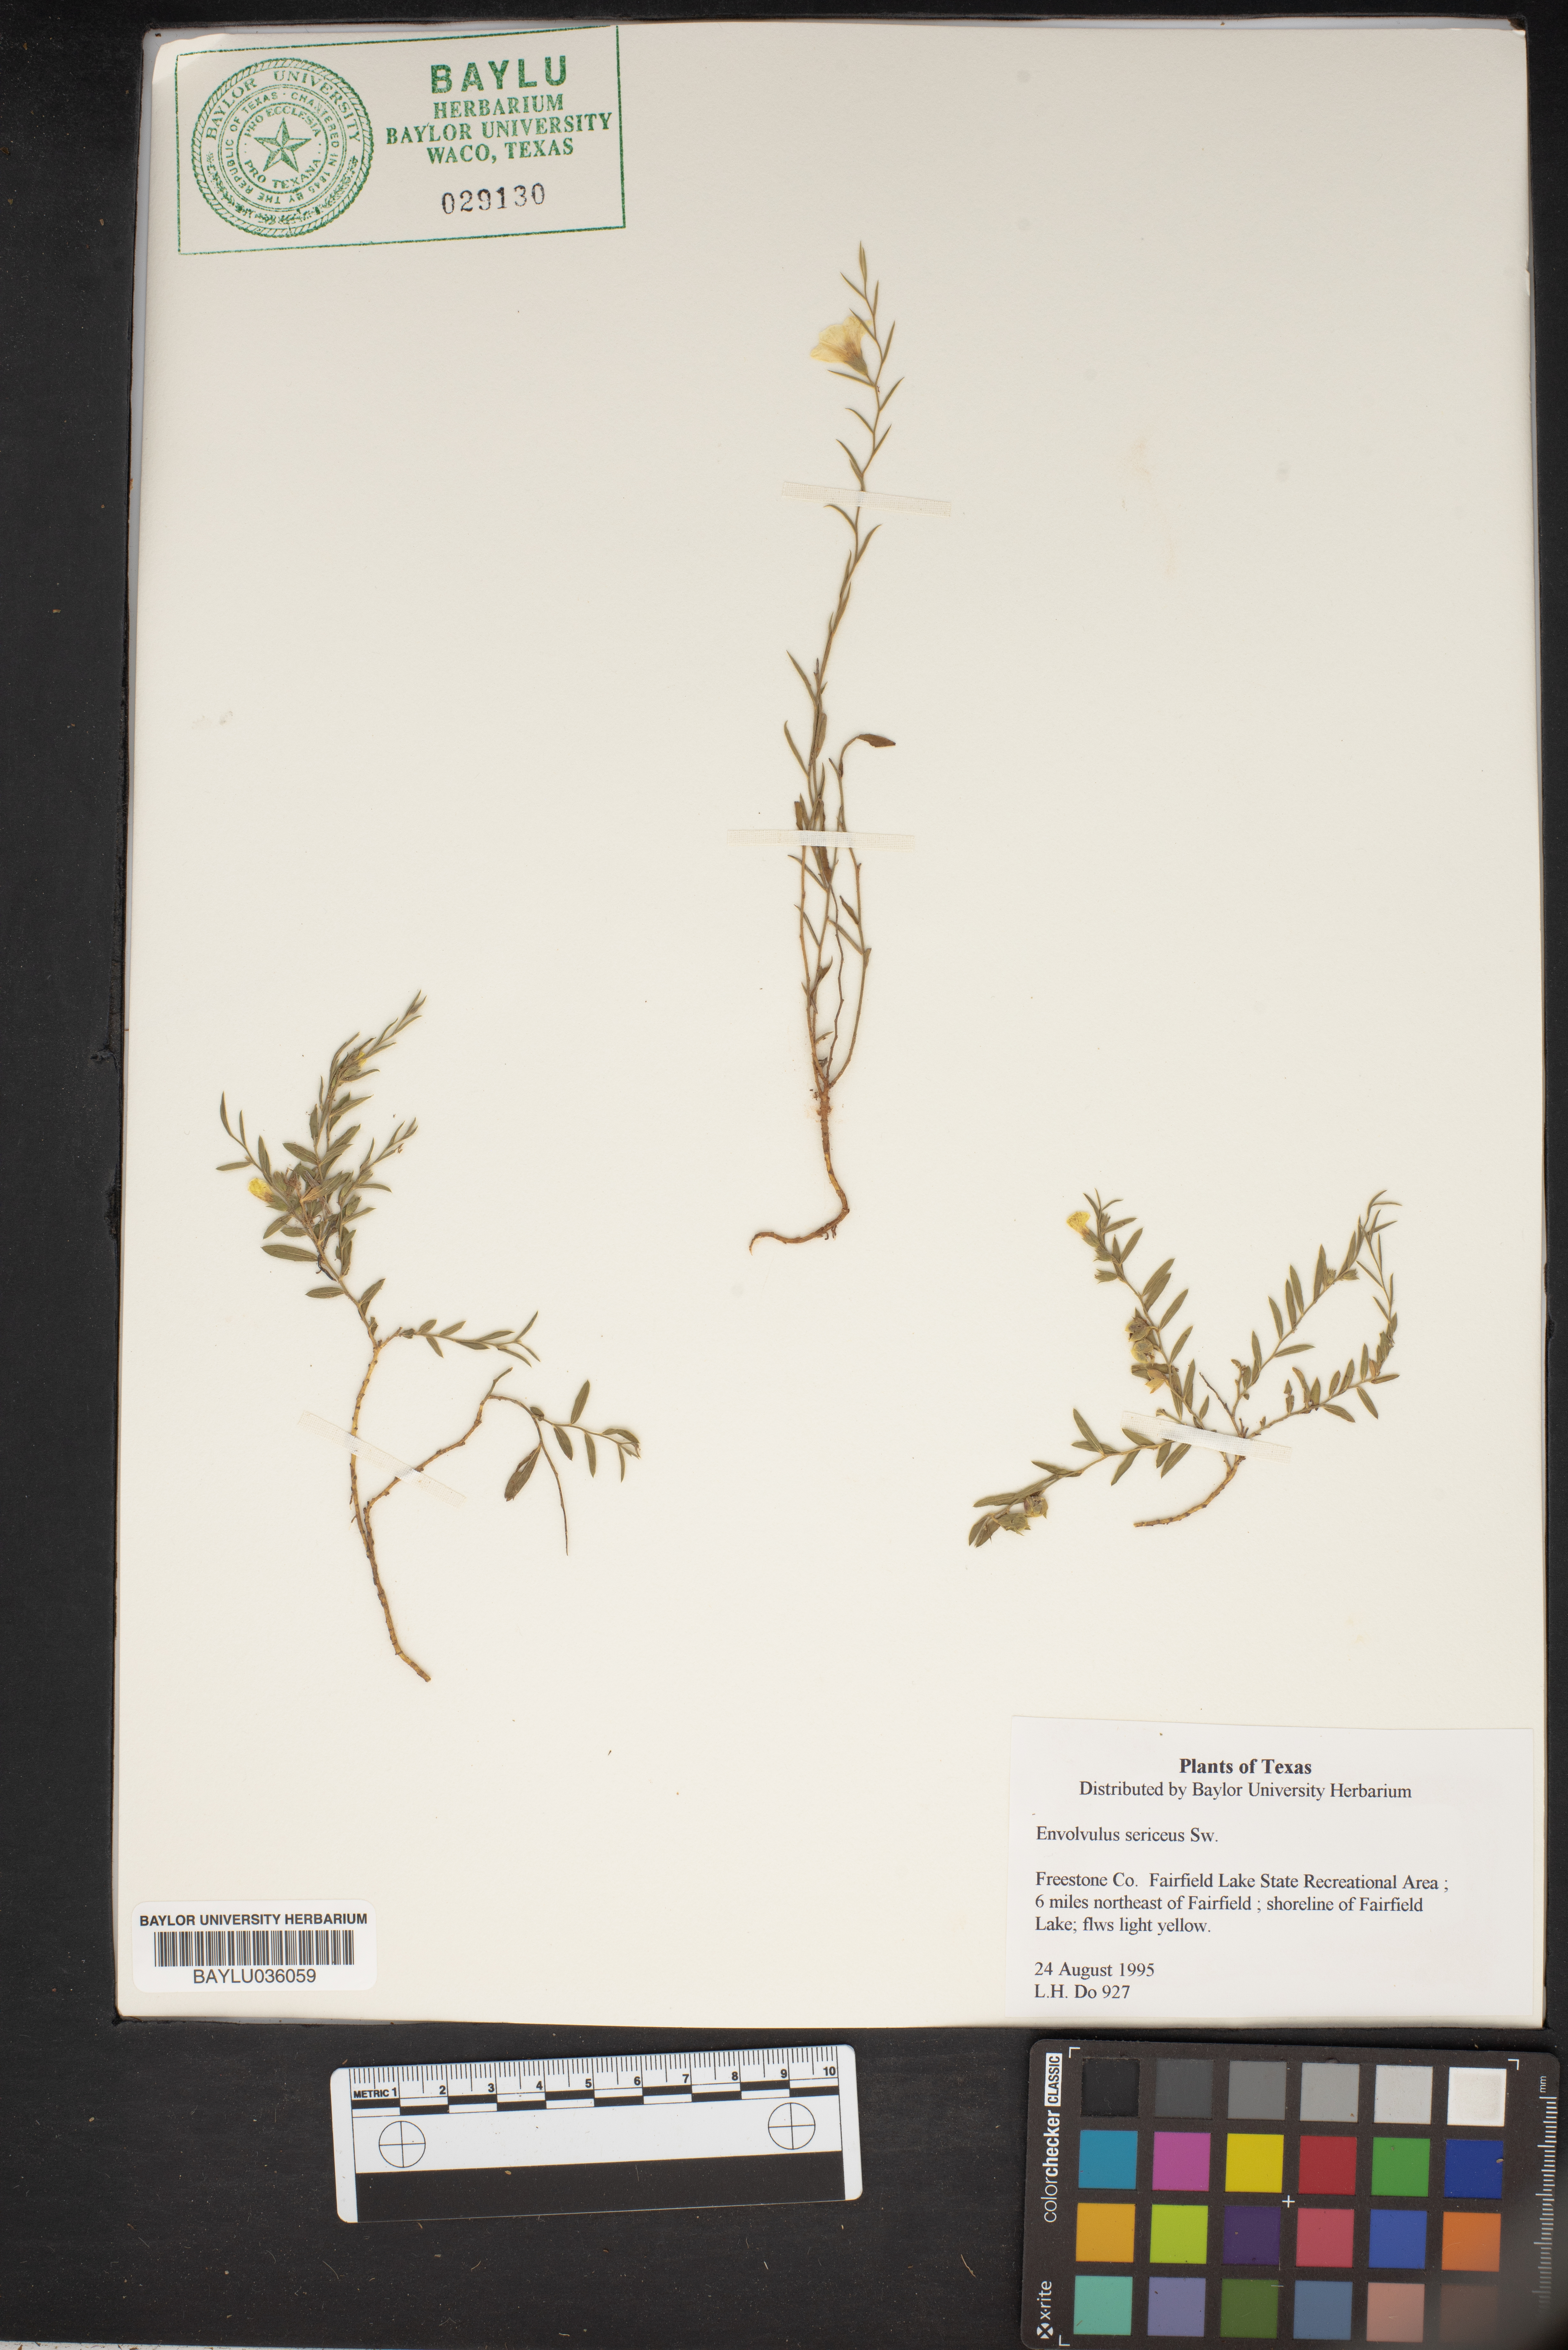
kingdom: Plantae
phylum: Tracheophyta
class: Magnoliopsida
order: Solanales
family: Convolvulaceae
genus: Evolvulus
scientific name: Evolvulus sericeus
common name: Blue dots
